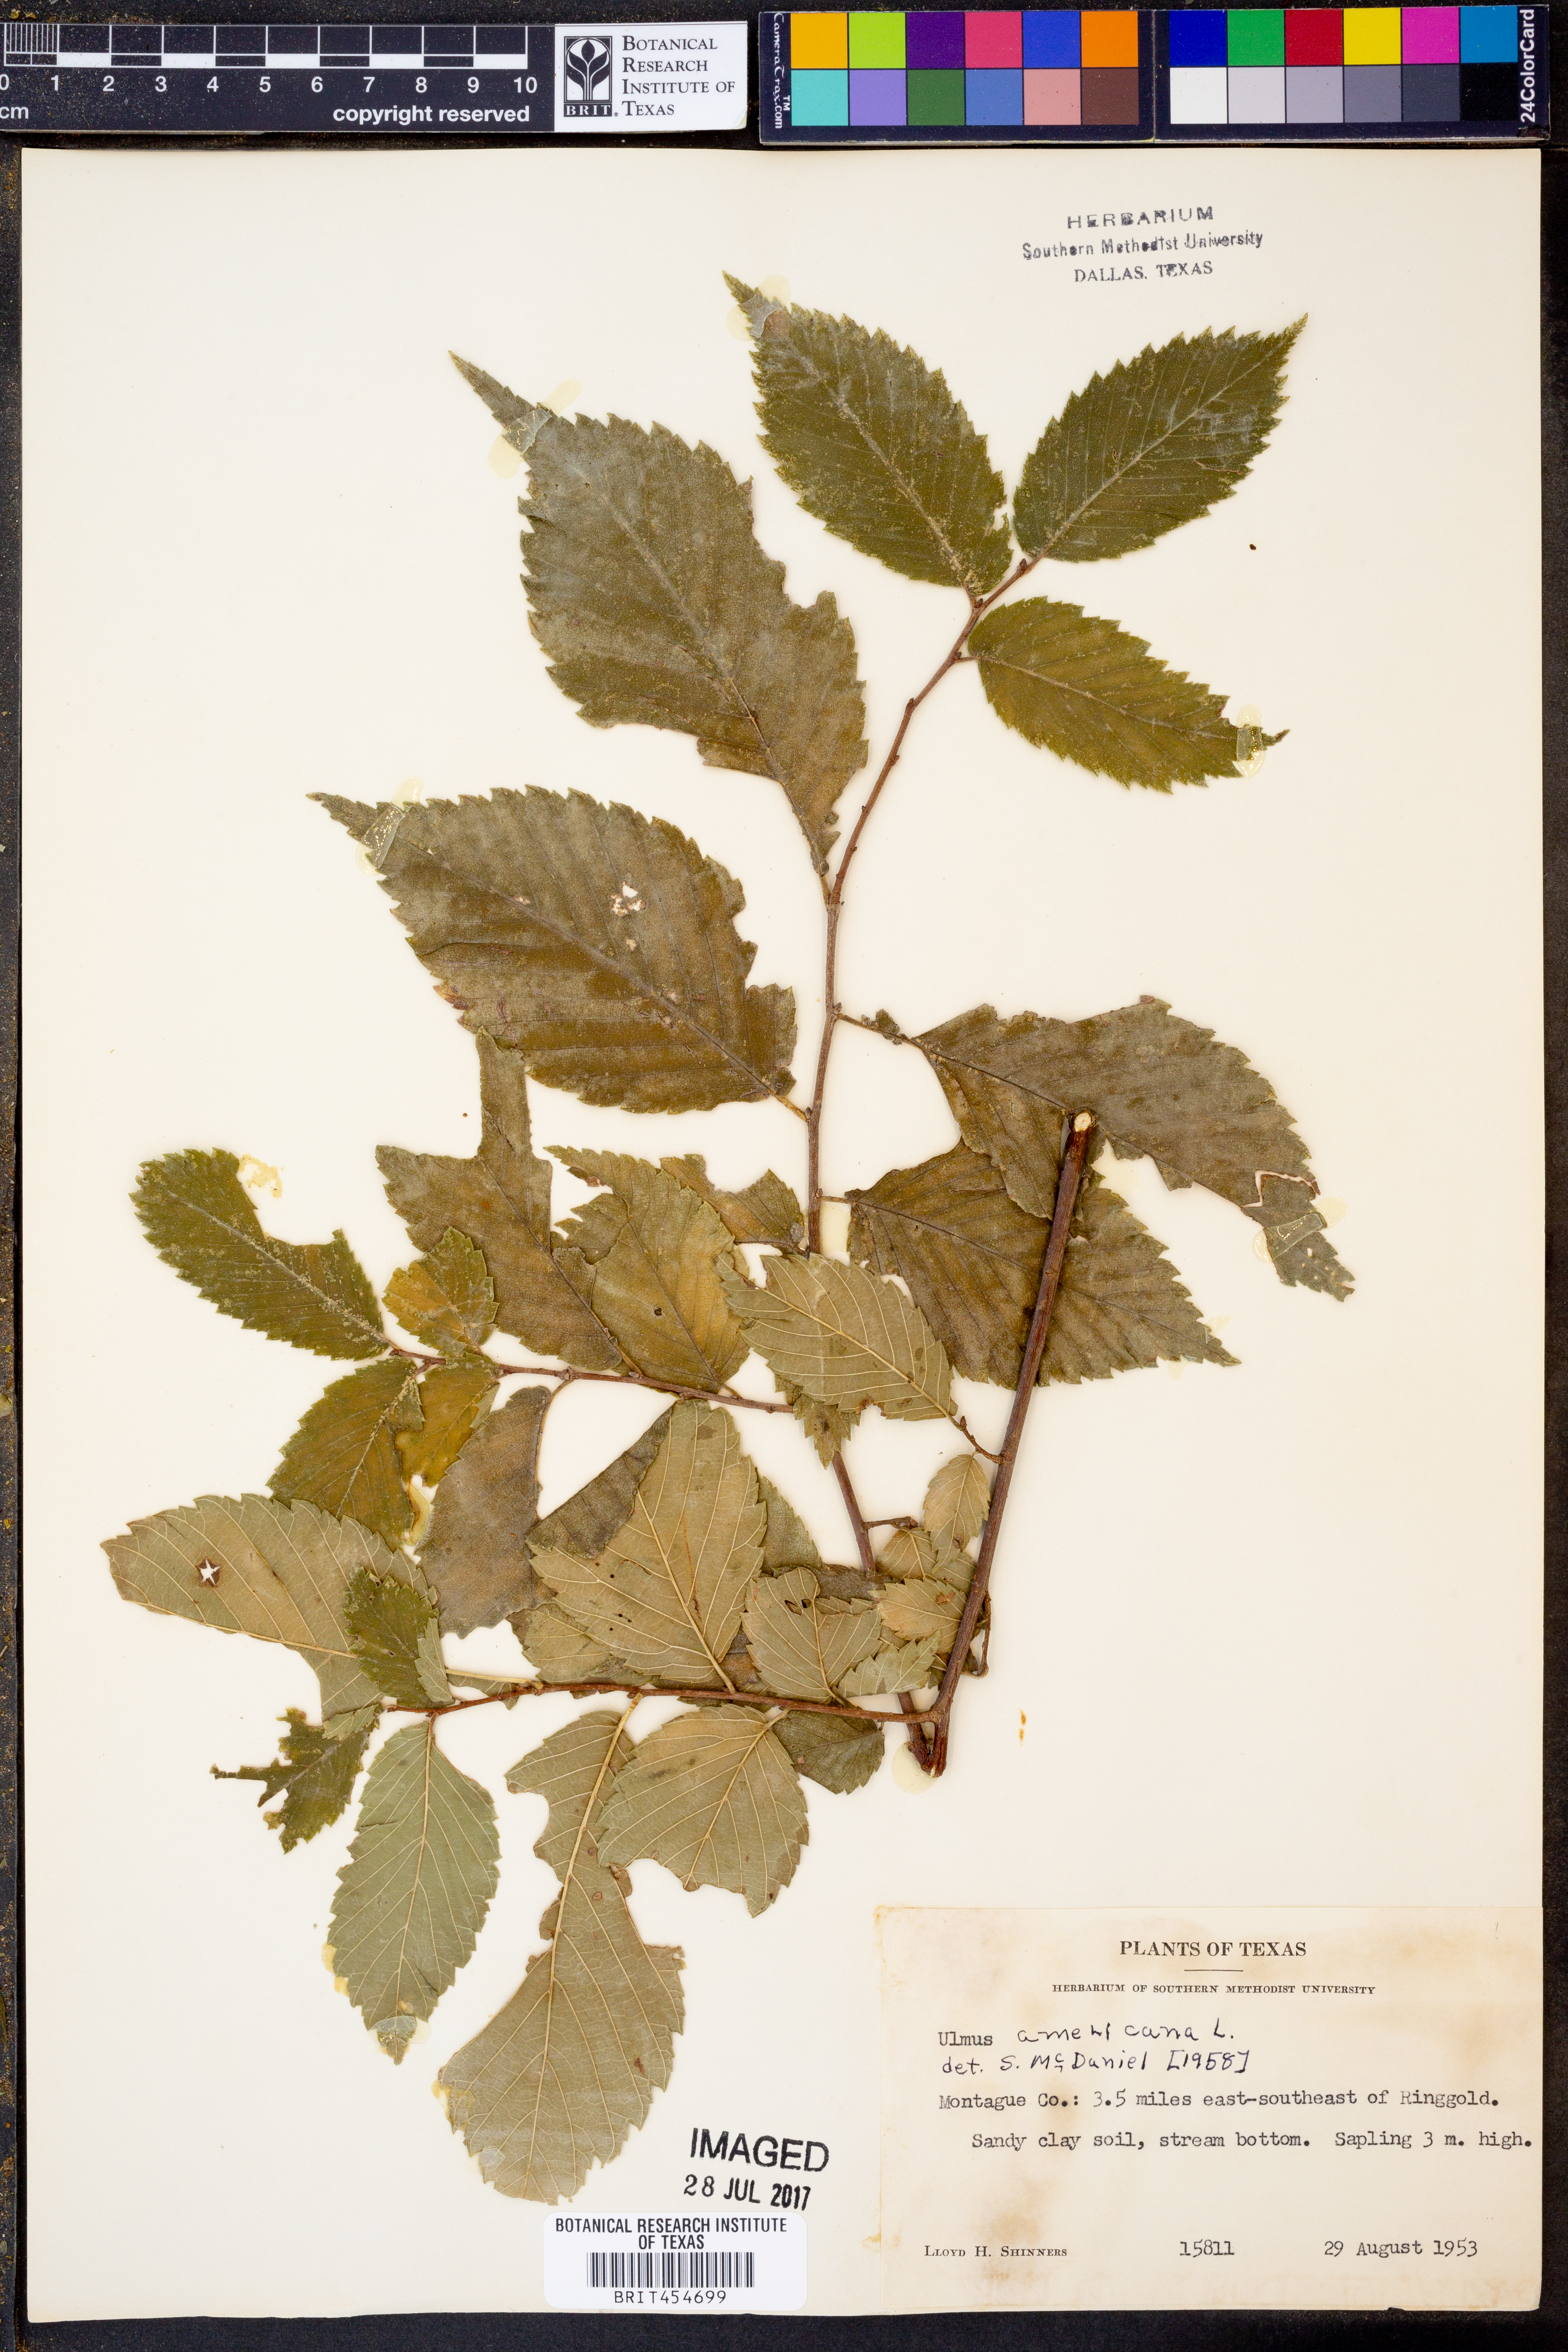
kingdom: Plantae
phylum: Tracheophyta
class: Magnoliopsida
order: Rosales
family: Ulmaceae
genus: Ulmus
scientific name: Ulmus americana
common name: American elm
